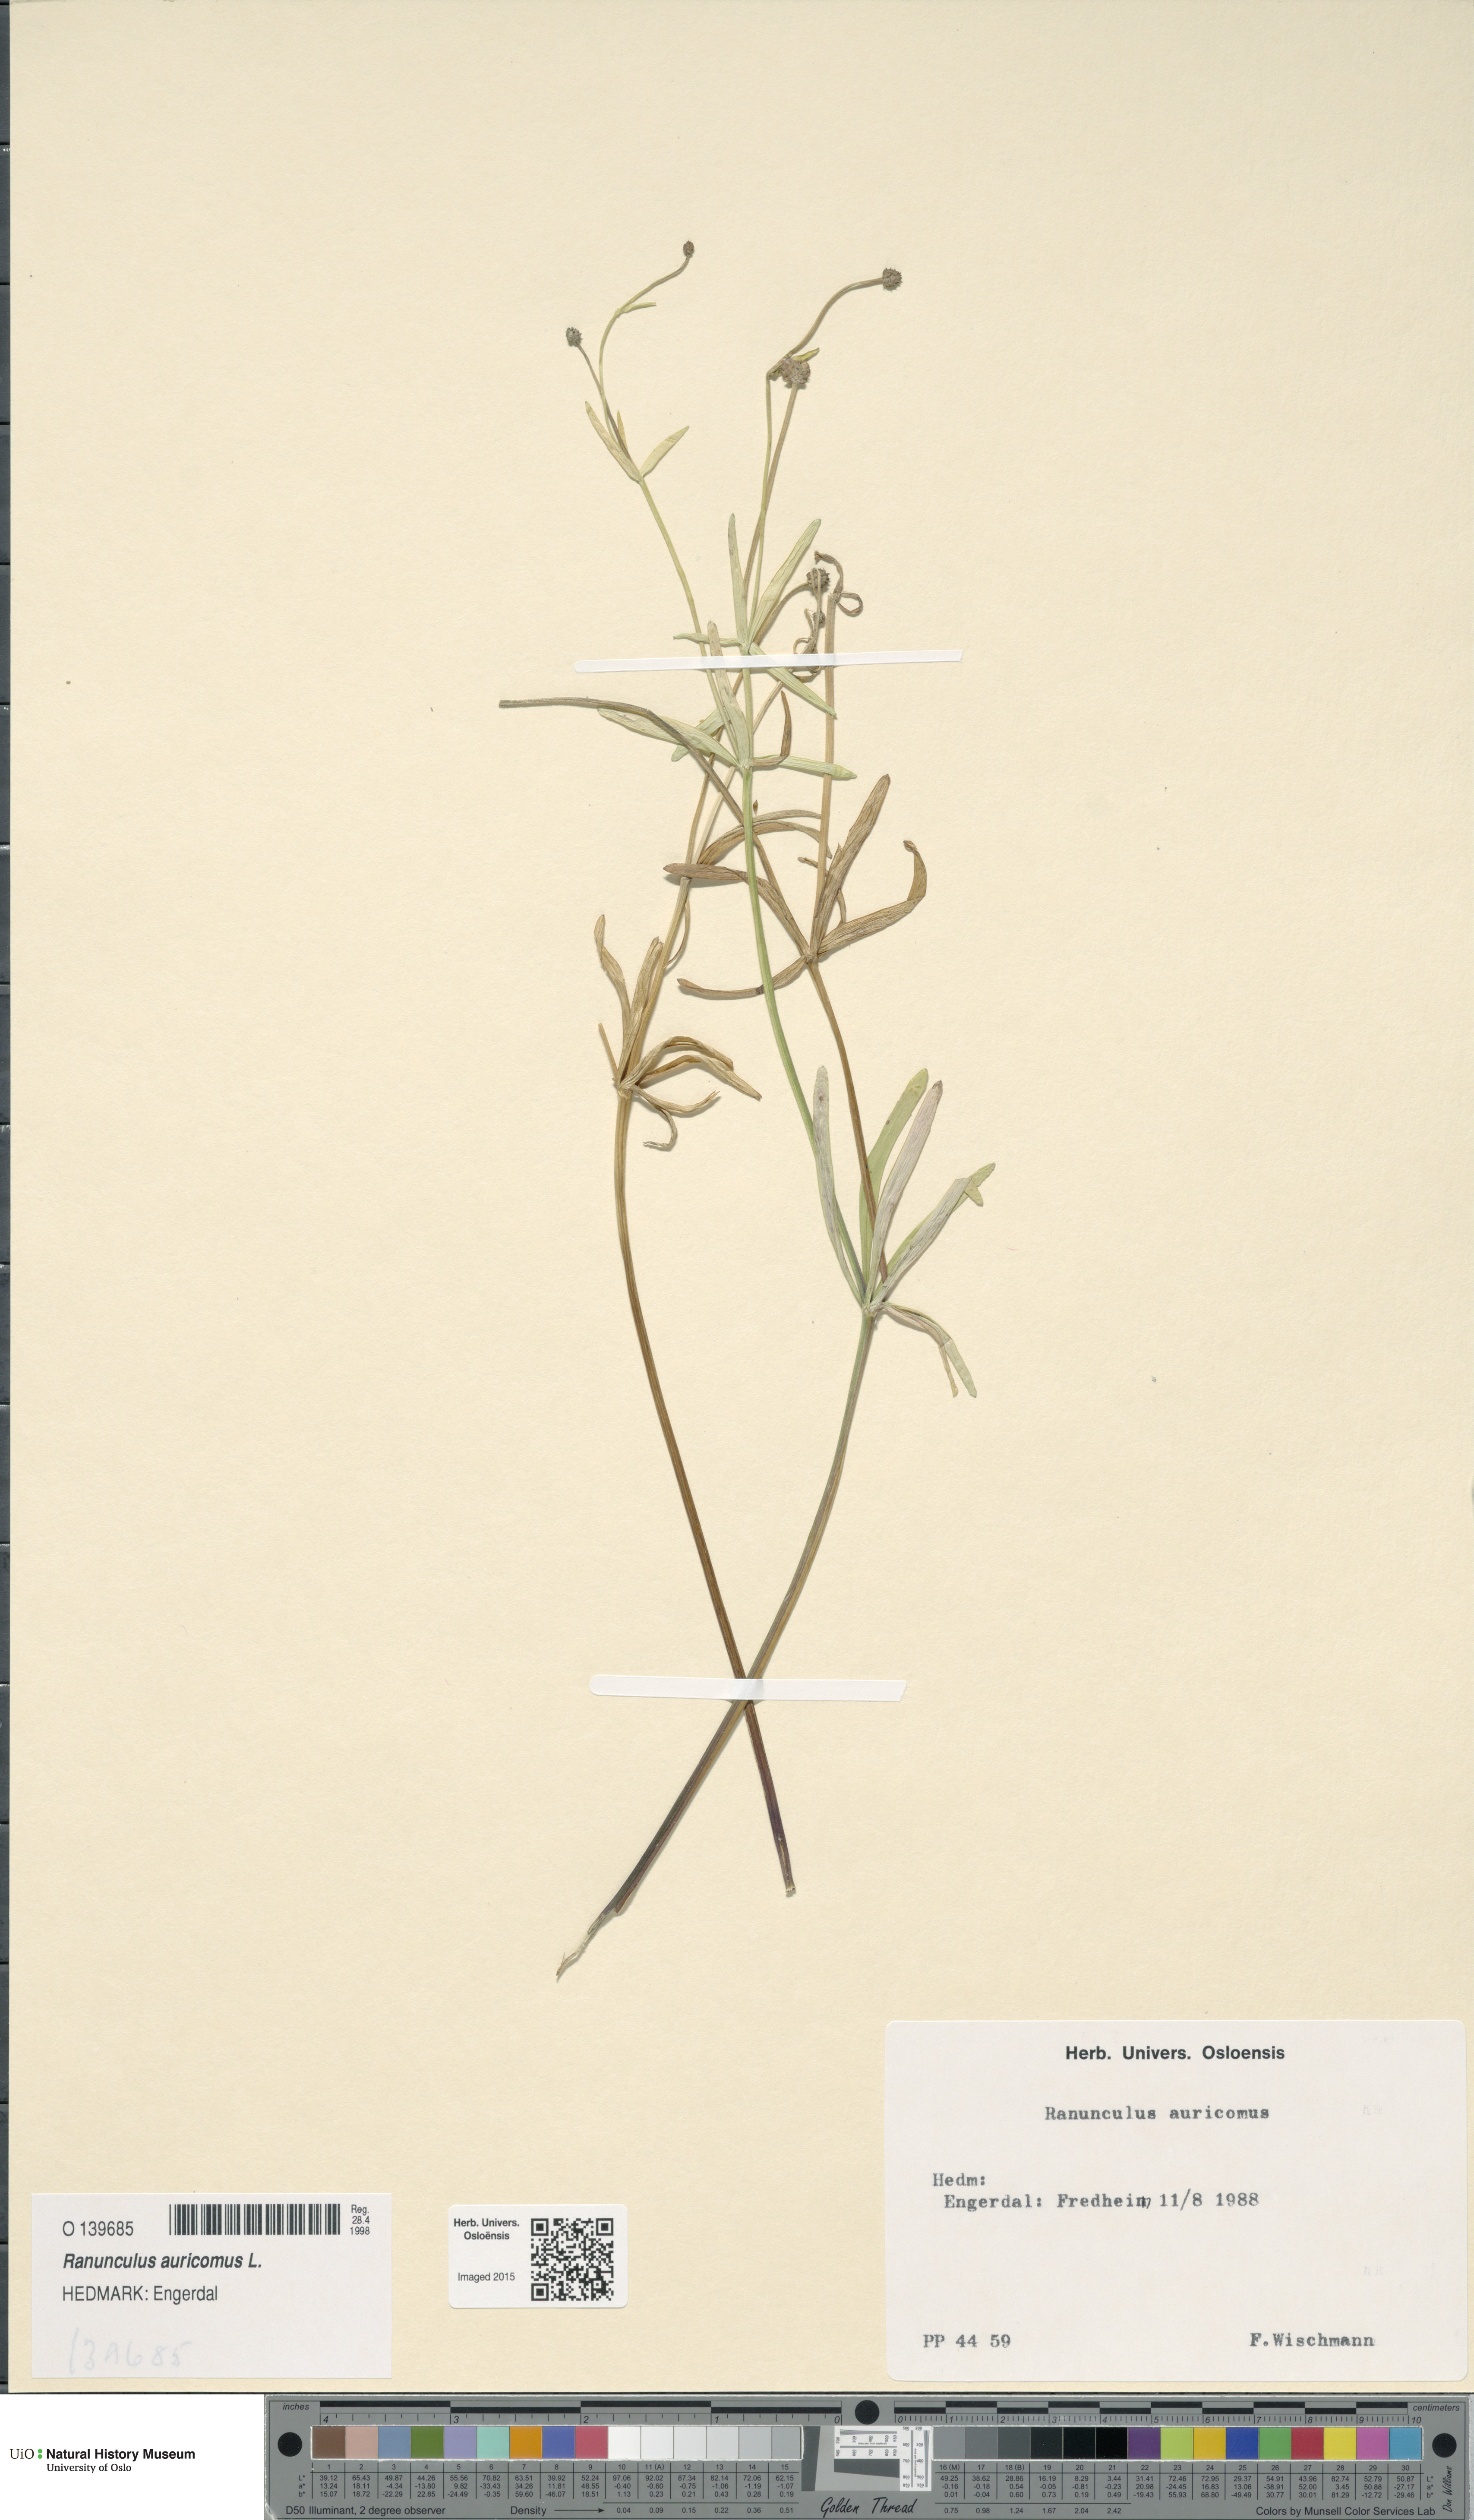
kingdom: Plantae
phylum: Tracheophyta
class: Magnoliopsida
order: Ranunculales
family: Ranunculaceae
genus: Ranunculus
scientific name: Ranunculus auricomus
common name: Goldilocks buttercup
